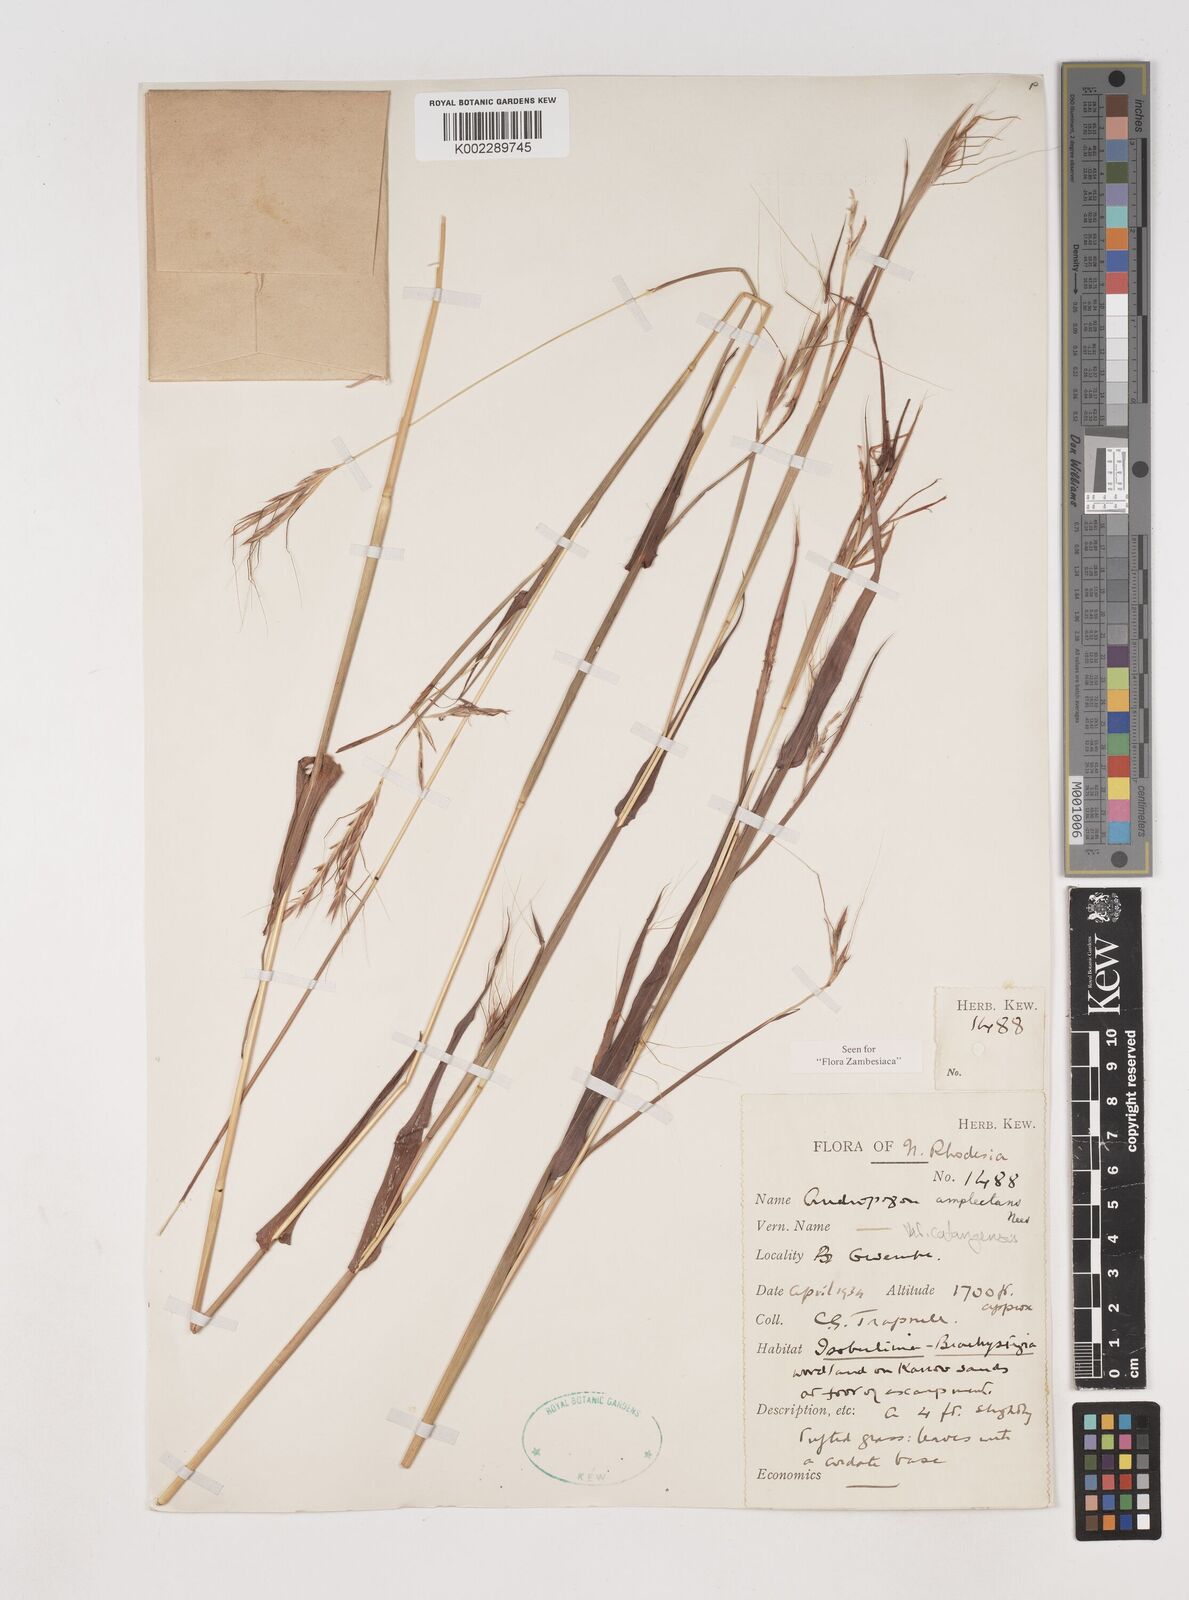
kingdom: Plantae
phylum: Tracheophyta
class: Liliopsida
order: Poales
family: Poaceae
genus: Diheteropogon
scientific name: Diheteropogon amplectens
